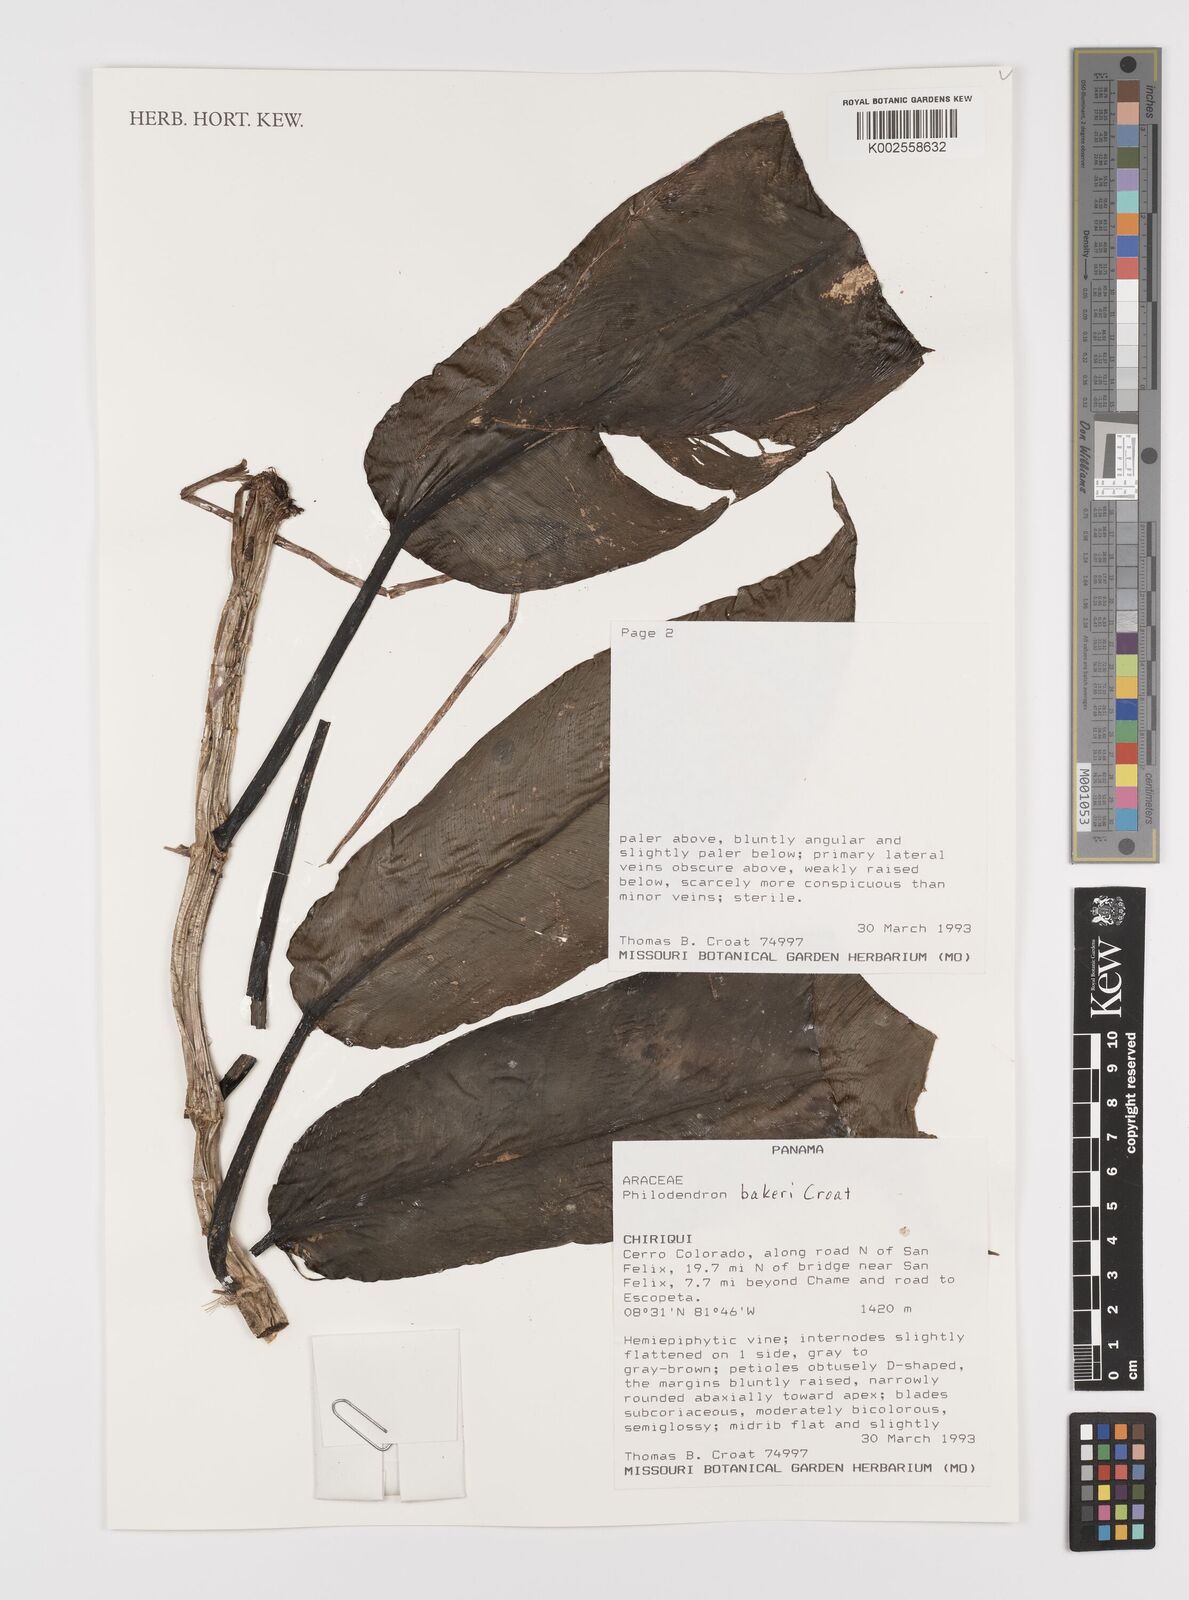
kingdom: Plantae
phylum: Tracheophyta
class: Liliopsida
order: Alismatales
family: Araceae
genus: Philodendron
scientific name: Philodendron bakeri
